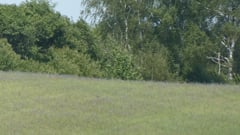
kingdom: Animalia
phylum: Chordata
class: Aves
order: Accipitriformes
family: Accipitridae
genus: Circus
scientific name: Circus aeruginosus
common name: Western marsh harrier
